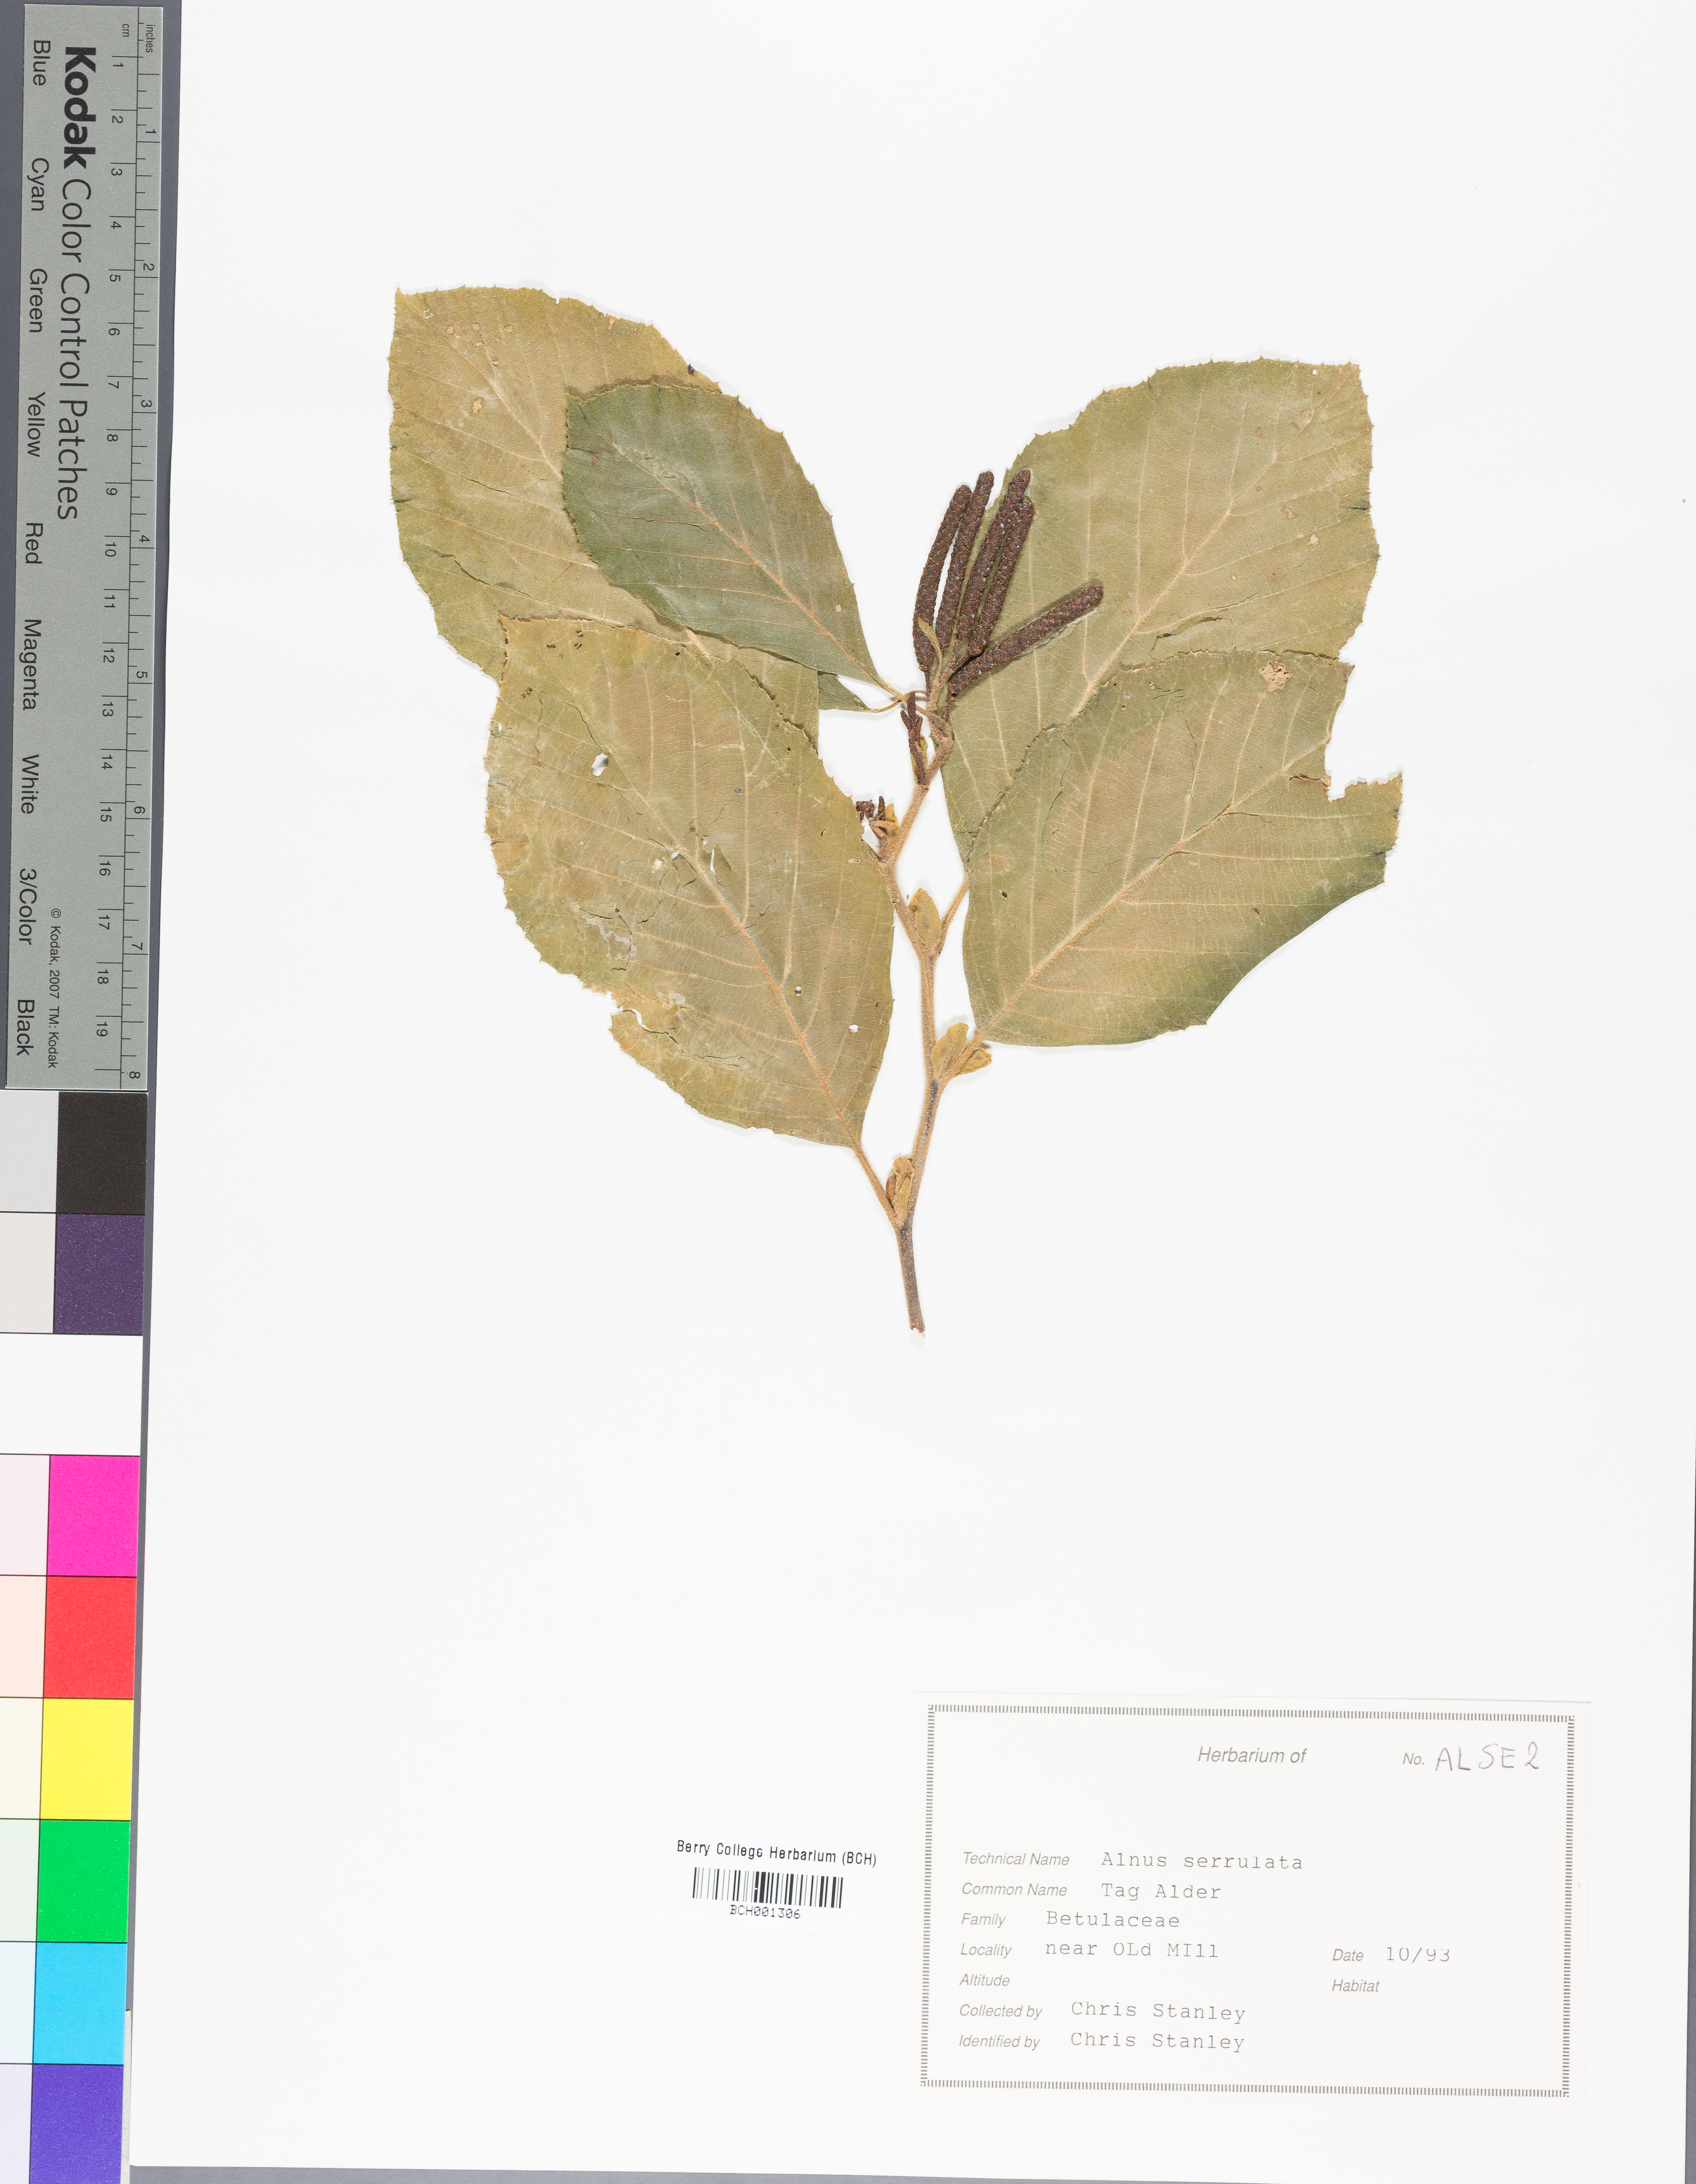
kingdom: Plantae
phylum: Tracheophyta
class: Magnoliopsida
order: Fagales
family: Betulaceae
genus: Alnus
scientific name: Alnus serrulata
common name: Hazel alder
